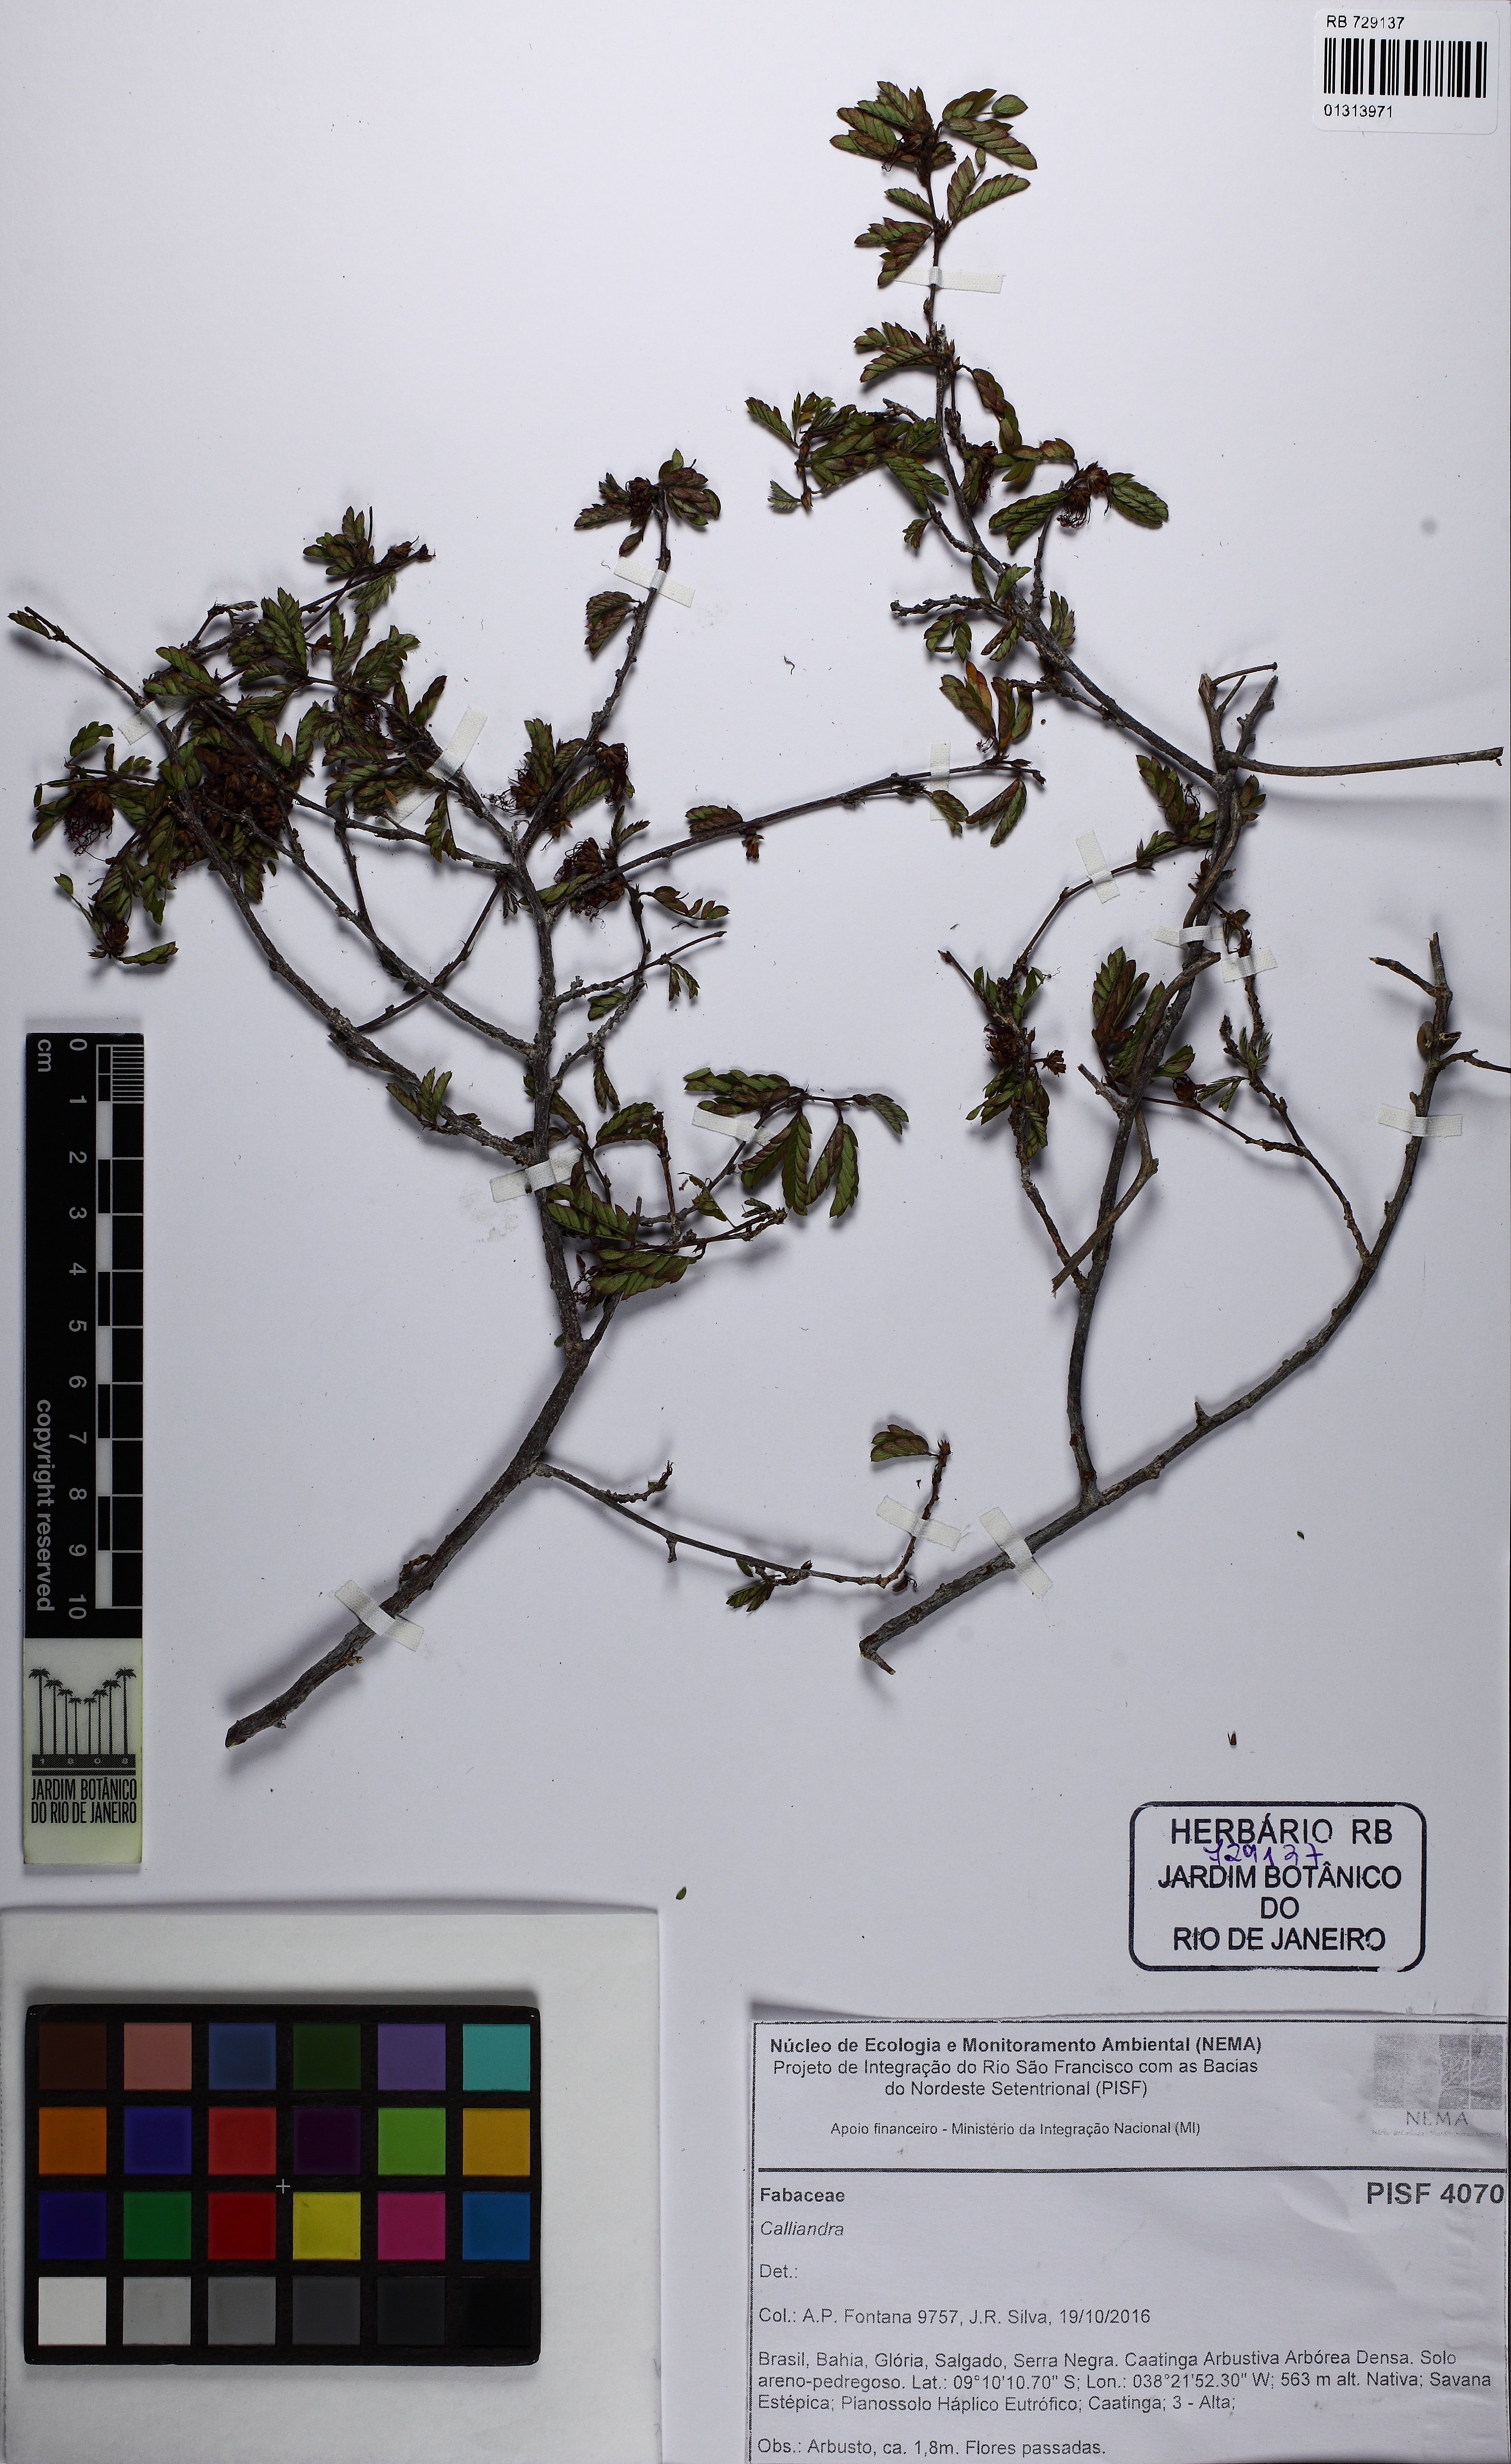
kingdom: Plantae
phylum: Tracheophyta
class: Magnoliopsida
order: Fabales
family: Fabaceae
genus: Calliandra
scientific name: Calliandra
